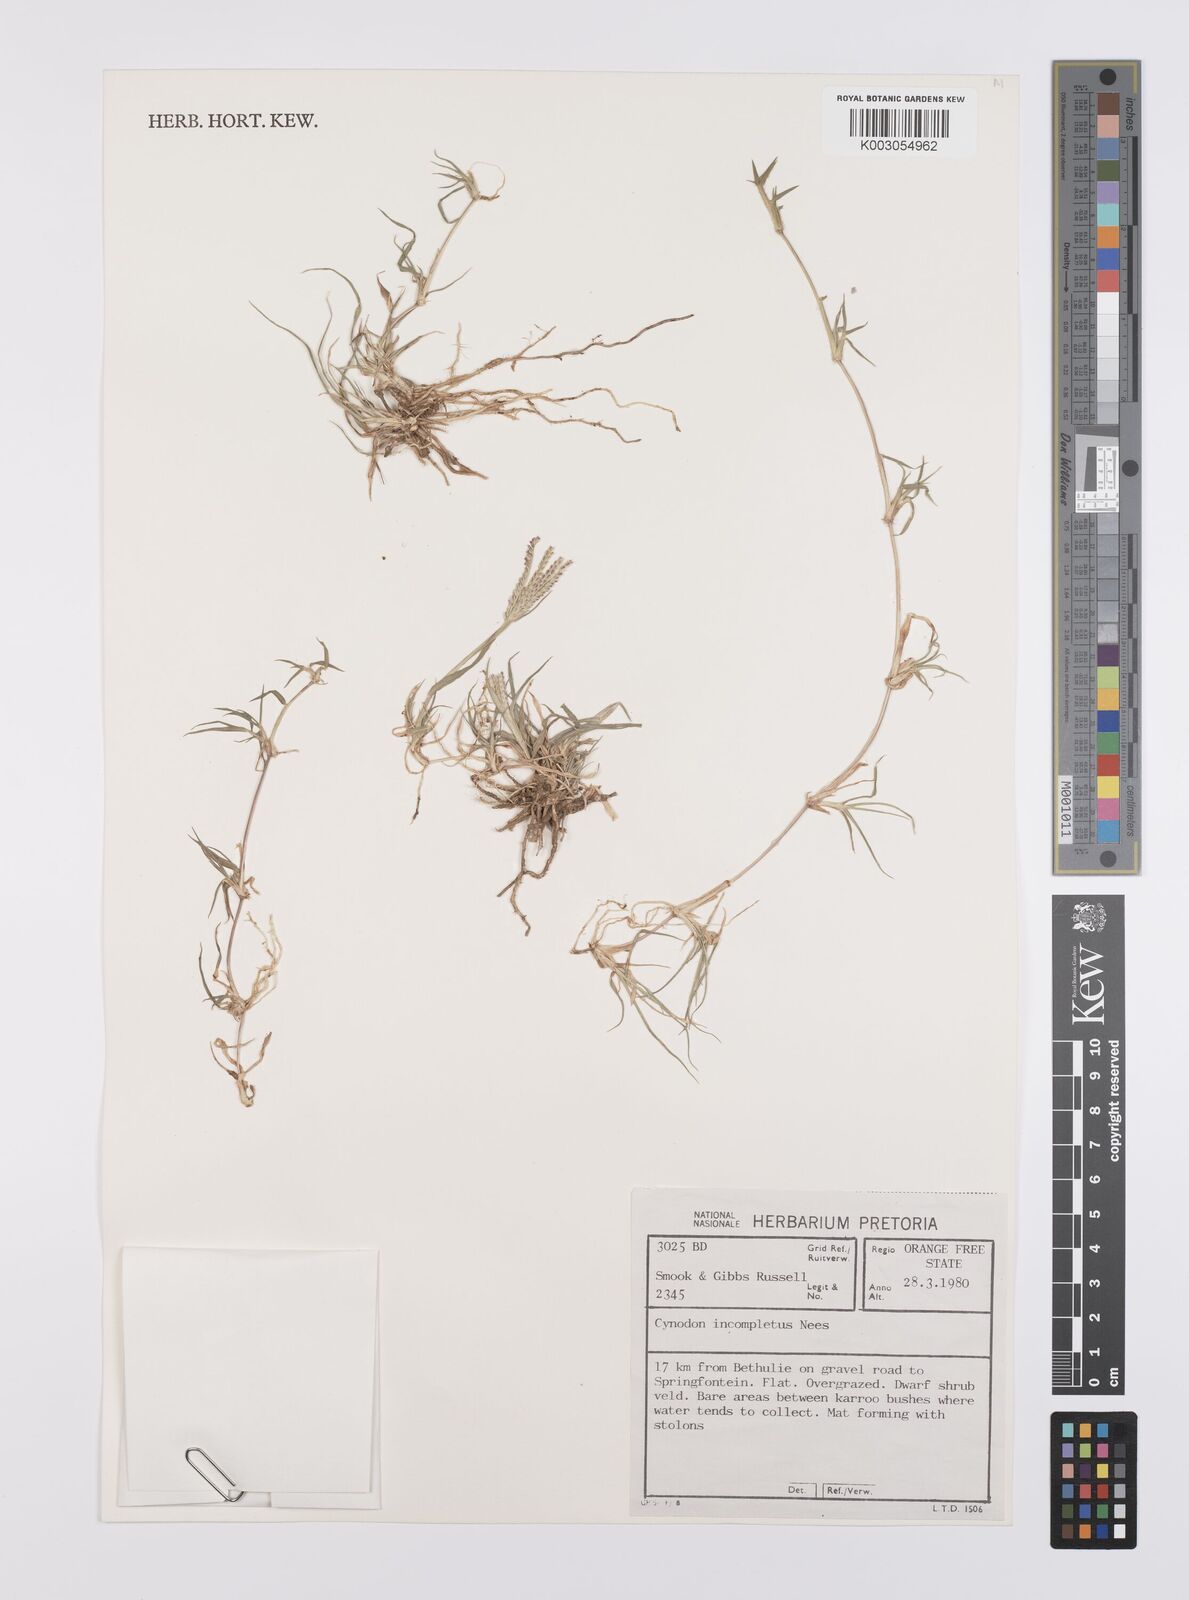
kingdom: Plantae
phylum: Tracheophyta
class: Liliopsida
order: Poales
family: Poaceae
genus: Cynodon
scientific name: Cynodon incompletus
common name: African bermuda-grass
